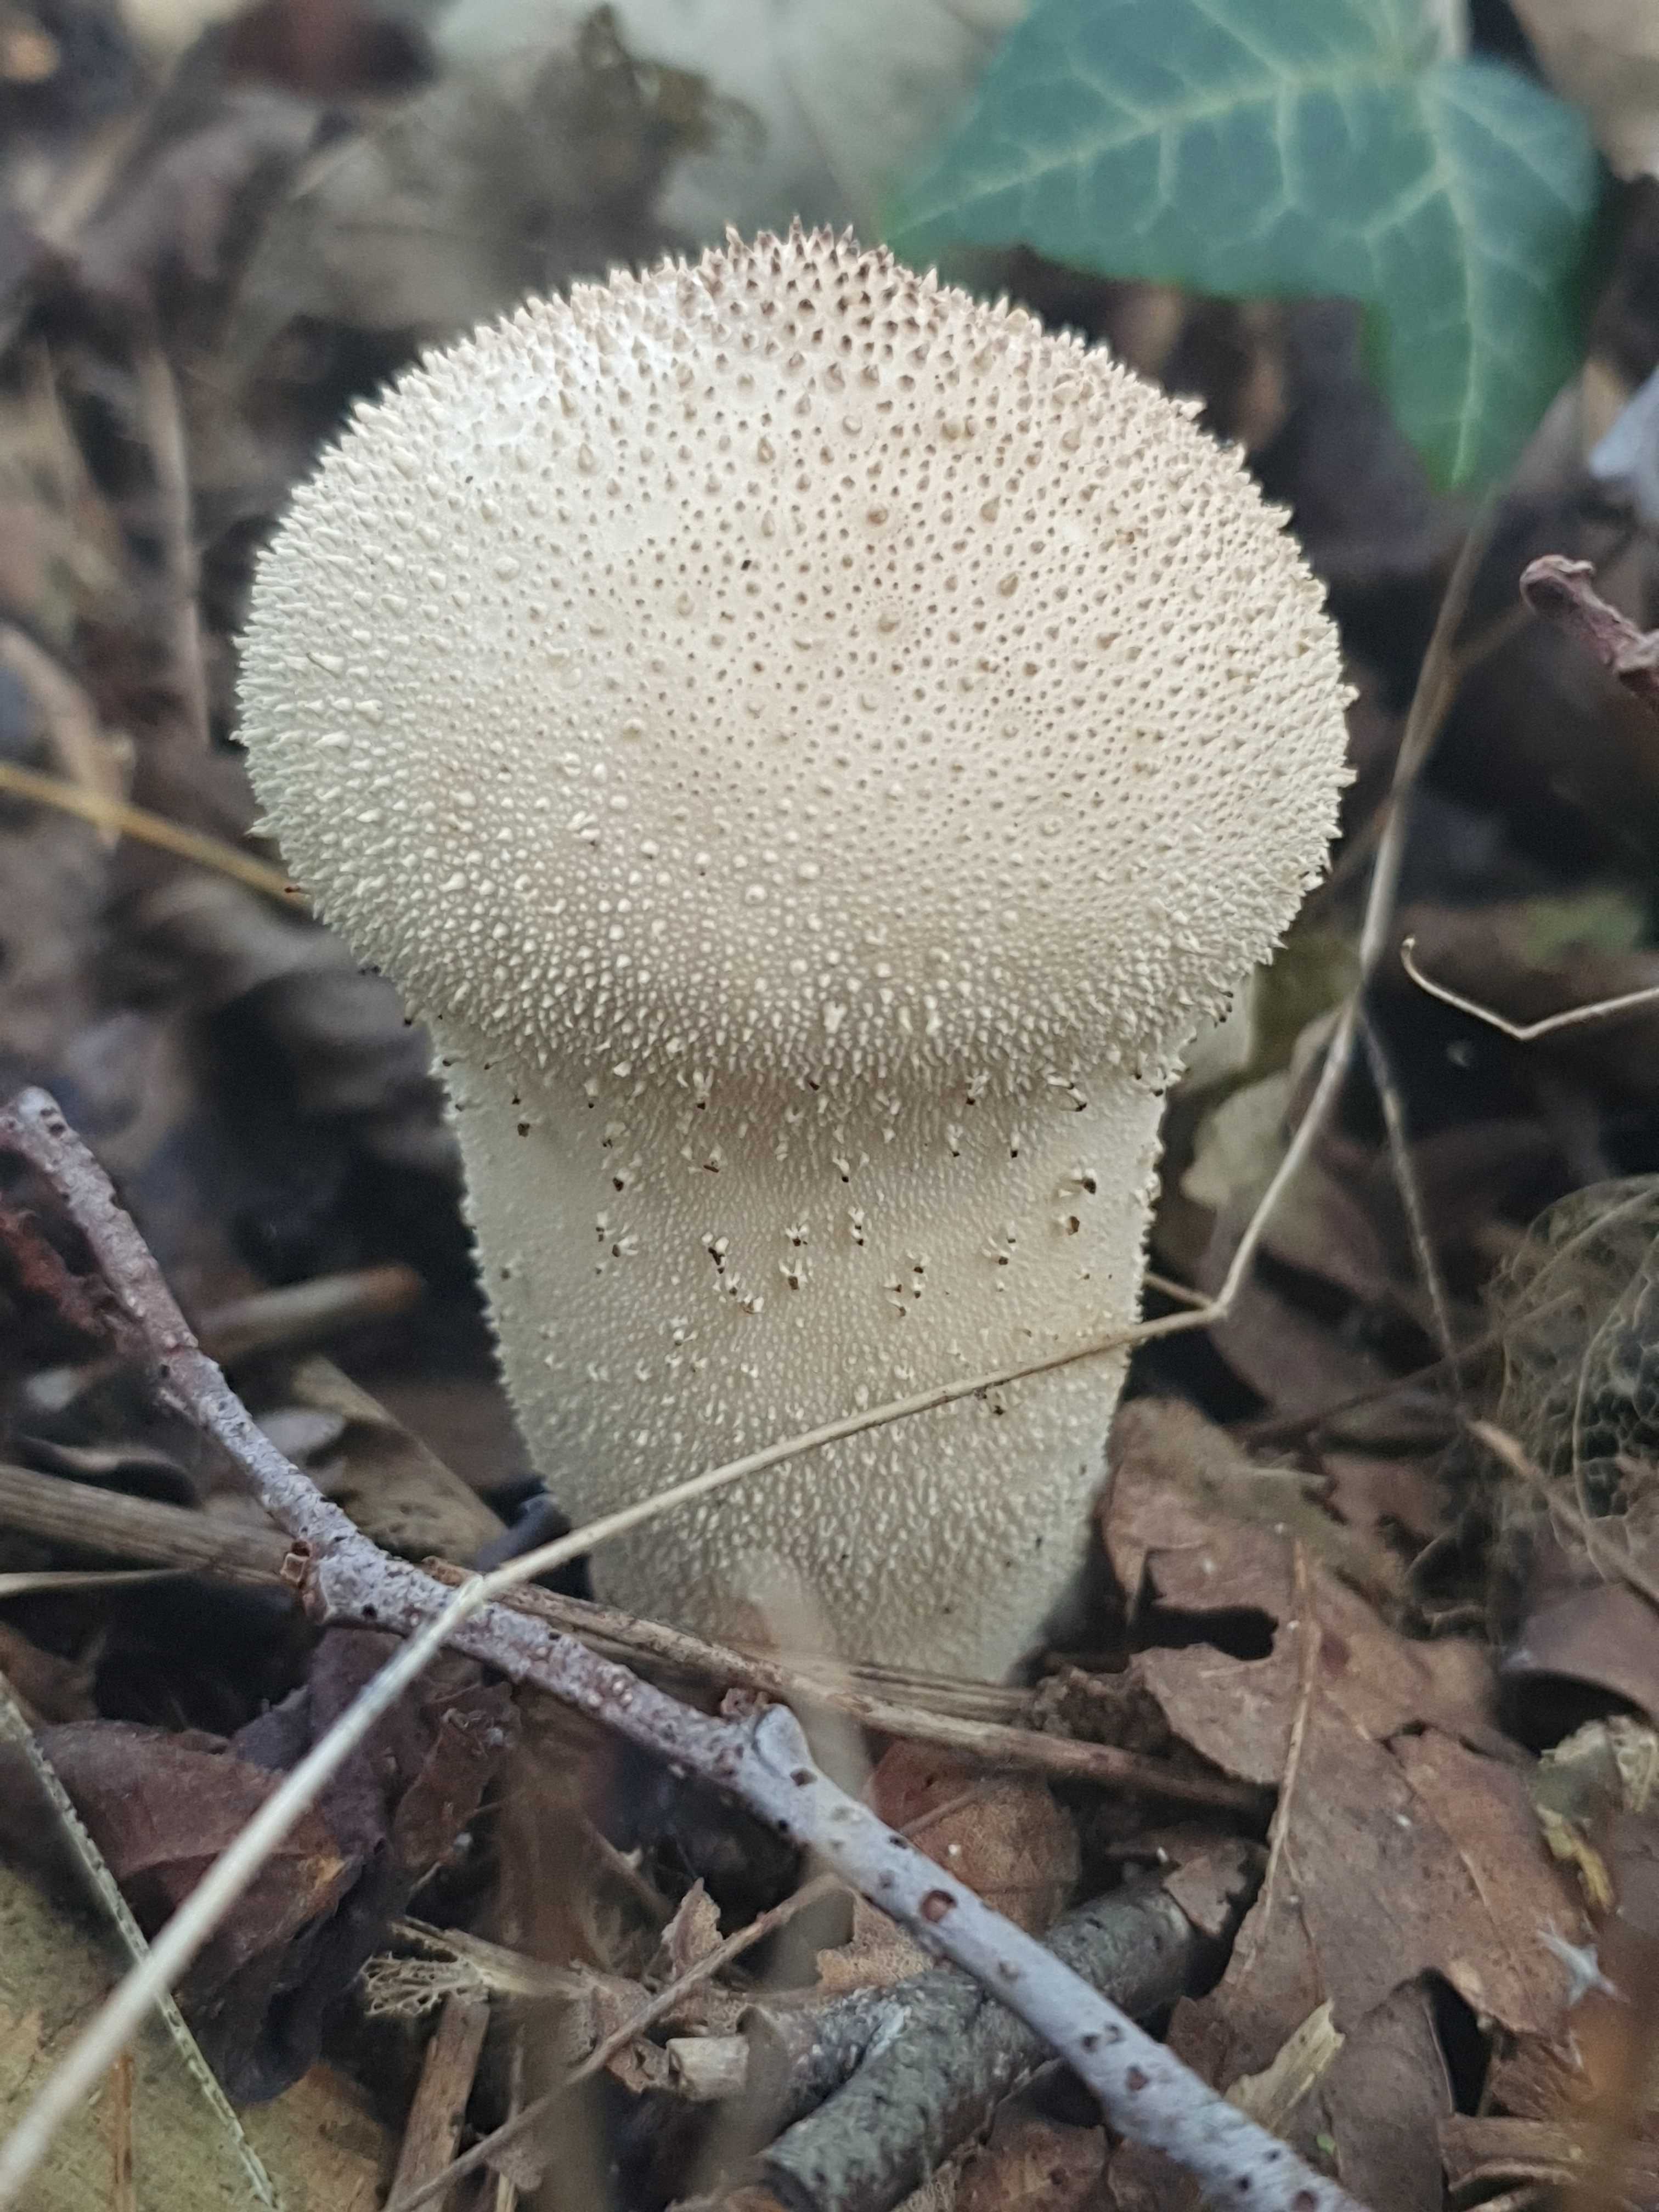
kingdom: Fungi
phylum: Basidiomycota
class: Agaricomycetes
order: Agaricales
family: Lycoperdaceae
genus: Lycoperdon
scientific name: Lycoperdon perlatum
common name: krystal-støvbold
